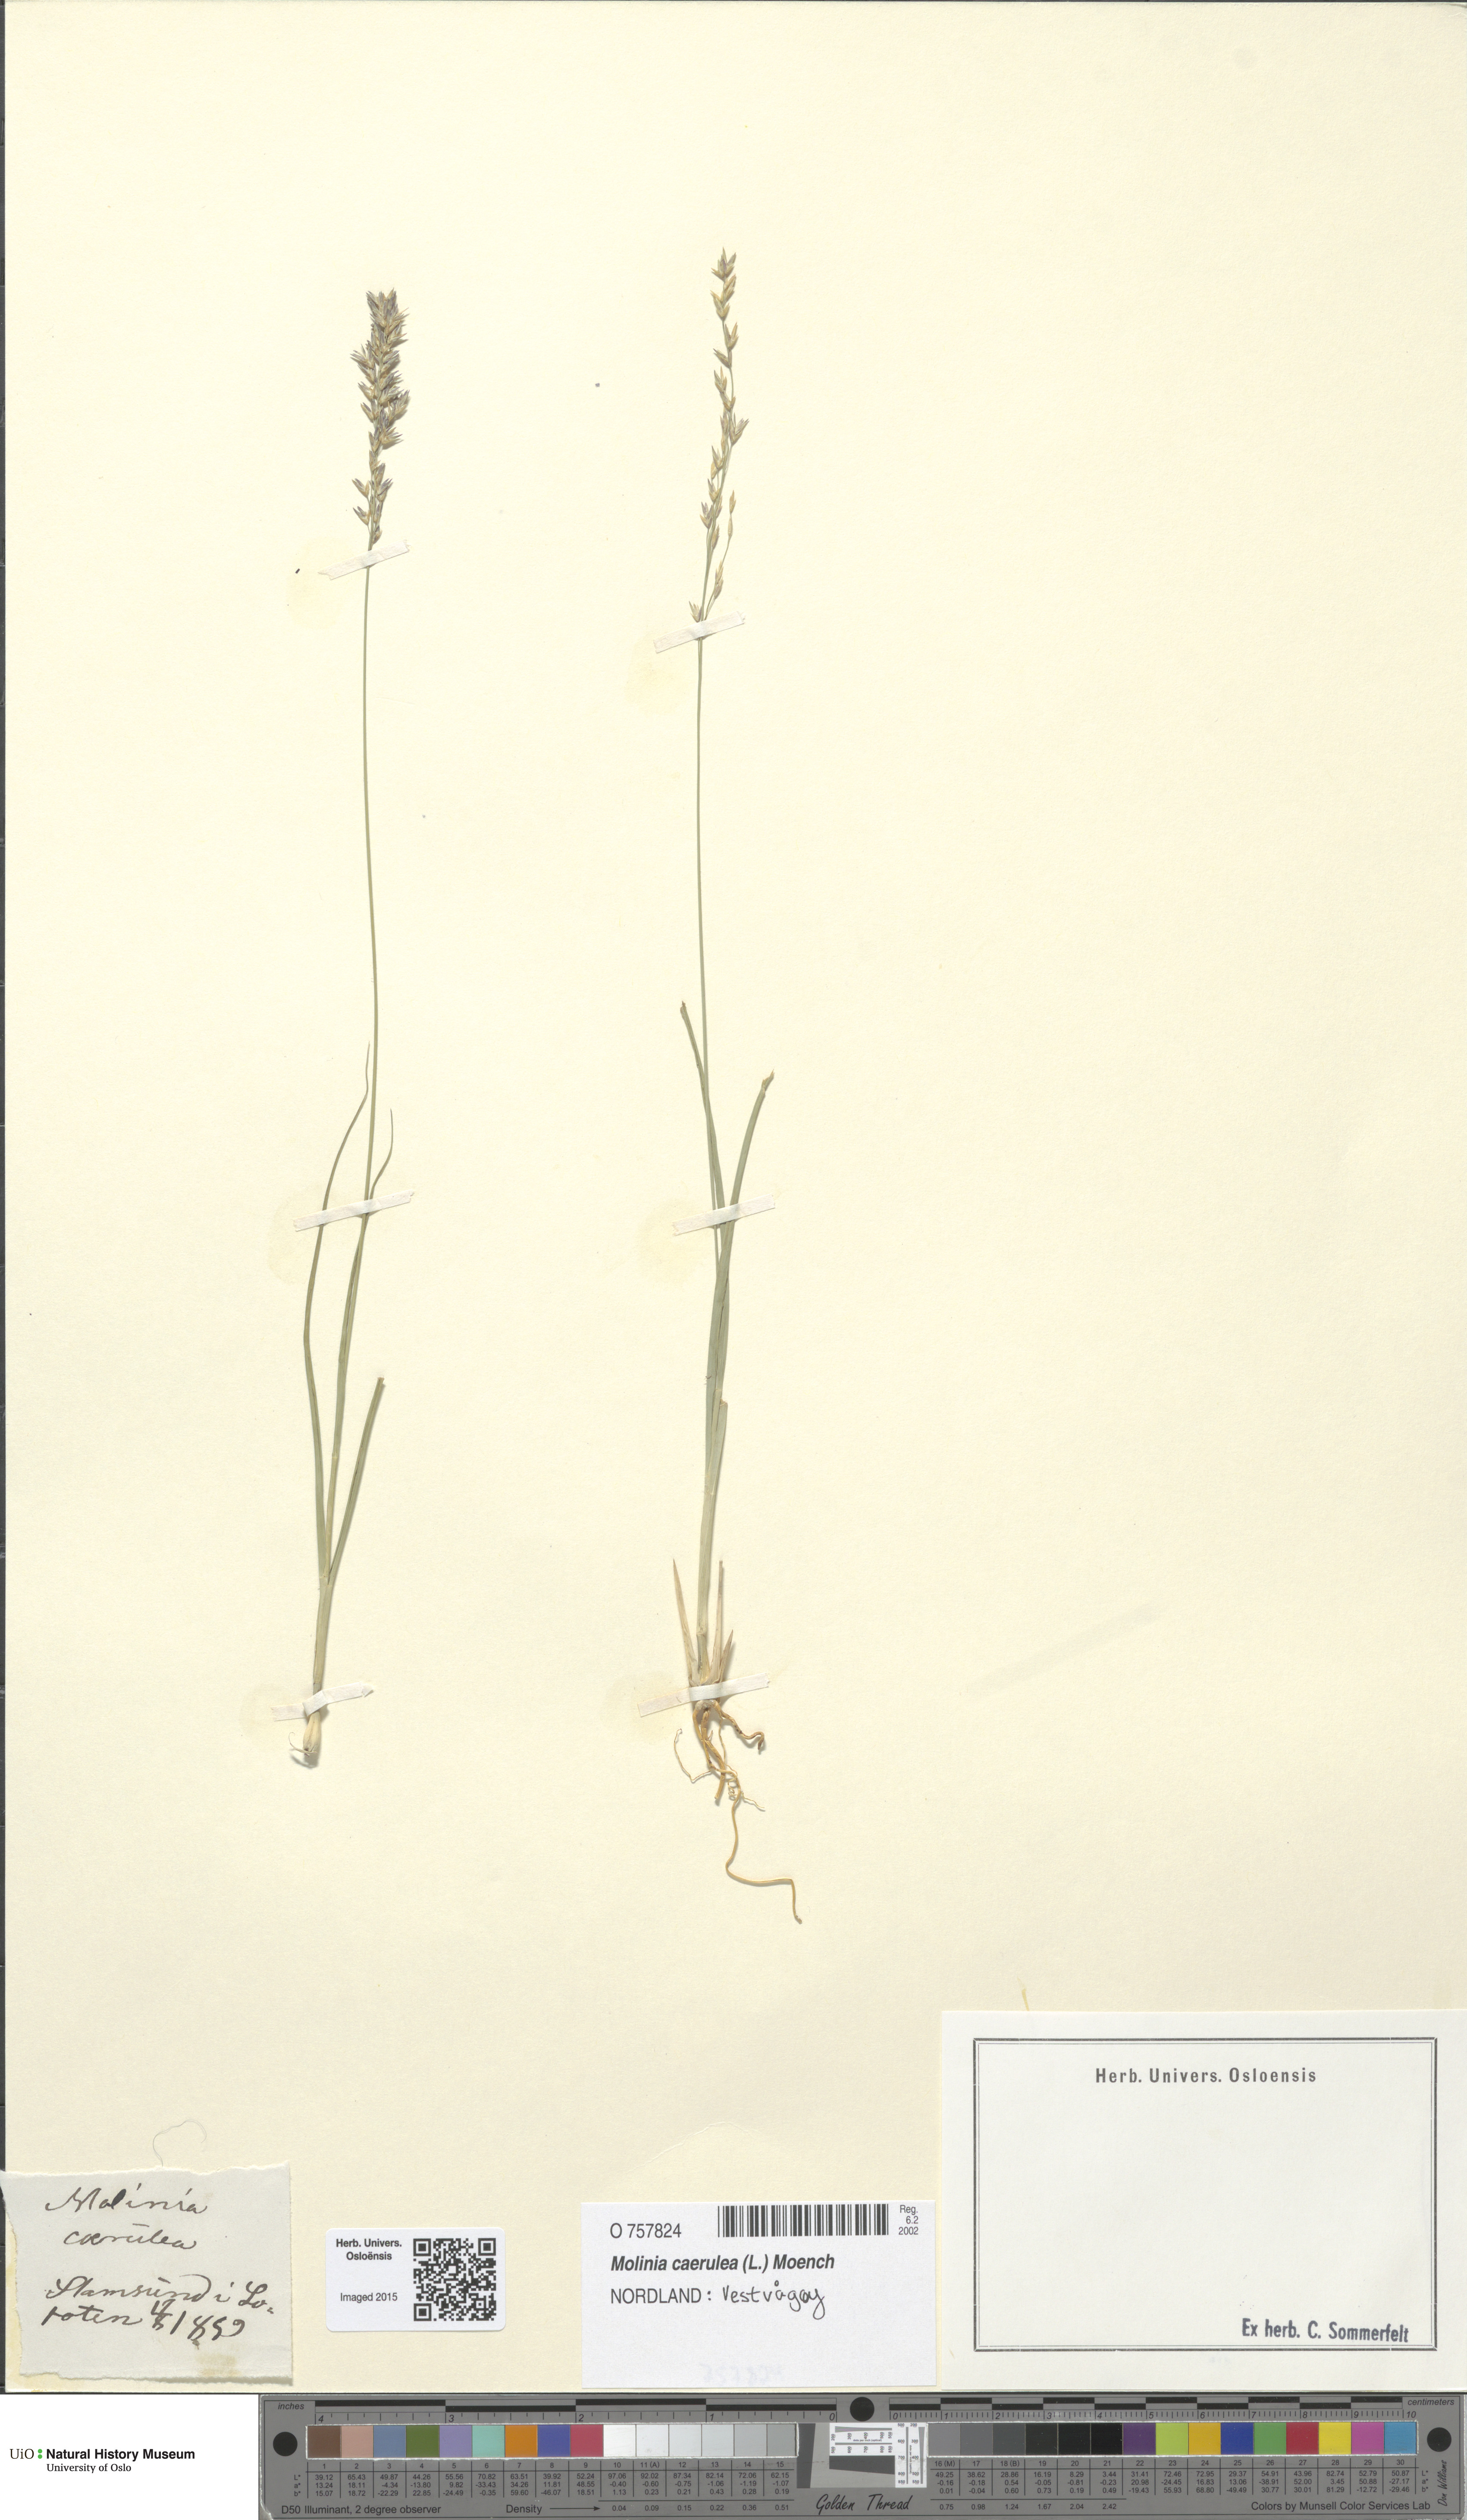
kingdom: Plantae
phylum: Tracheophyta
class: Liliopsida
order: Poales
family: Poaceae
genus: Molinia
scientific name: Molinia caerulea
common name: Purple moor-grass
